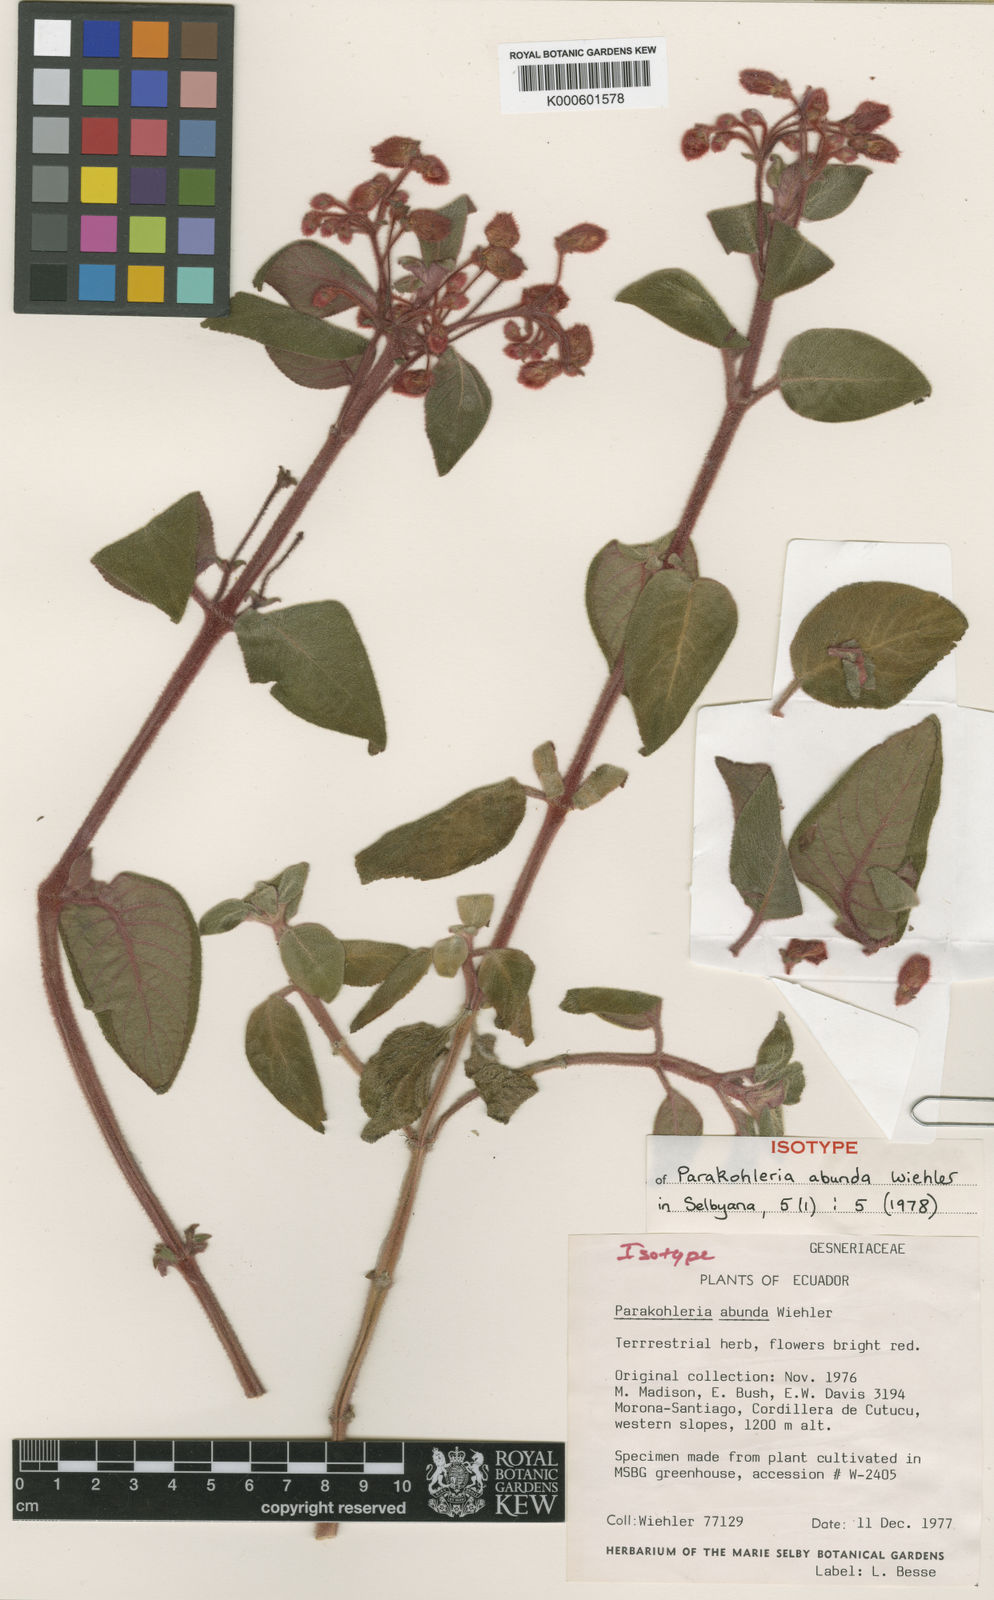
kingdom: Plantae
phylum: Tracheophyta
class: Magnoliopsida
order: Lamiales
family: Gesneriaceae
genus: Pearcea
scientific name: Pearcea abunda
